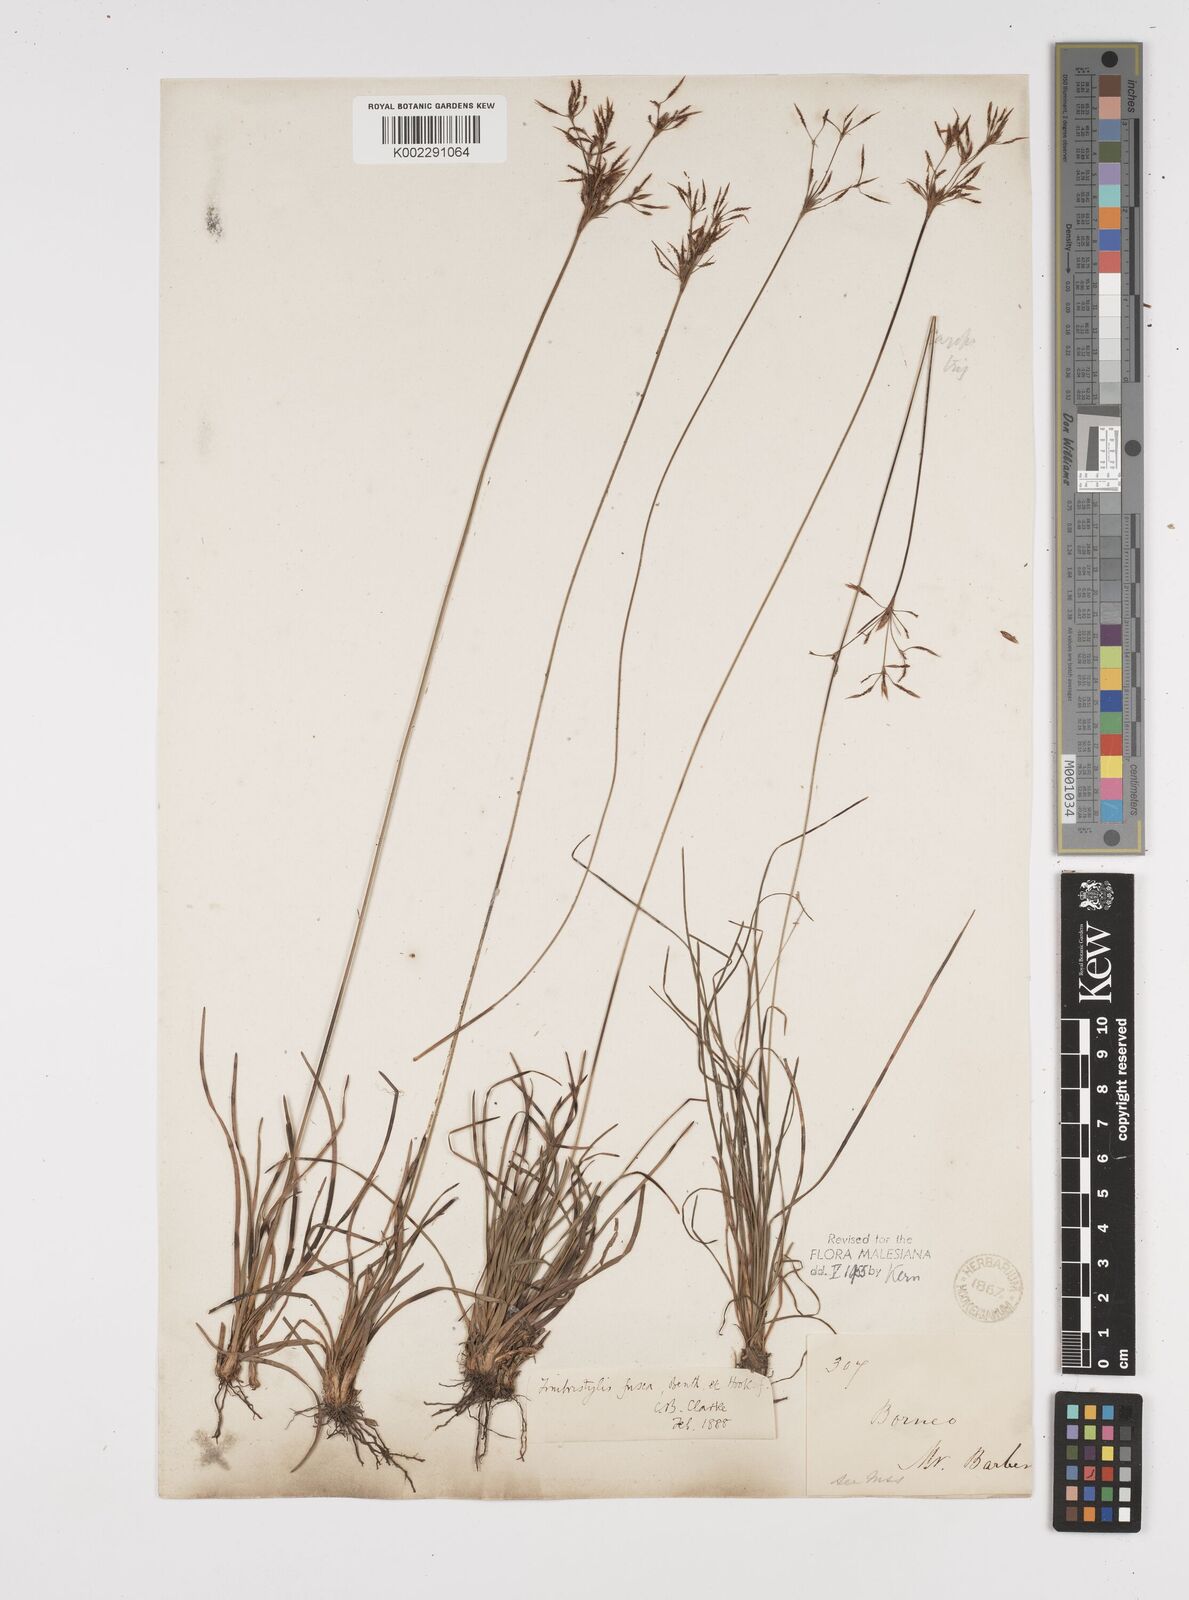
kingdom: Plantae
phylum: Tracheophyta
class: Liliopsida
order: Poales
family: Cyperaceae
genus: Fimbristylis
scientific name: Fimbristylis fusca
